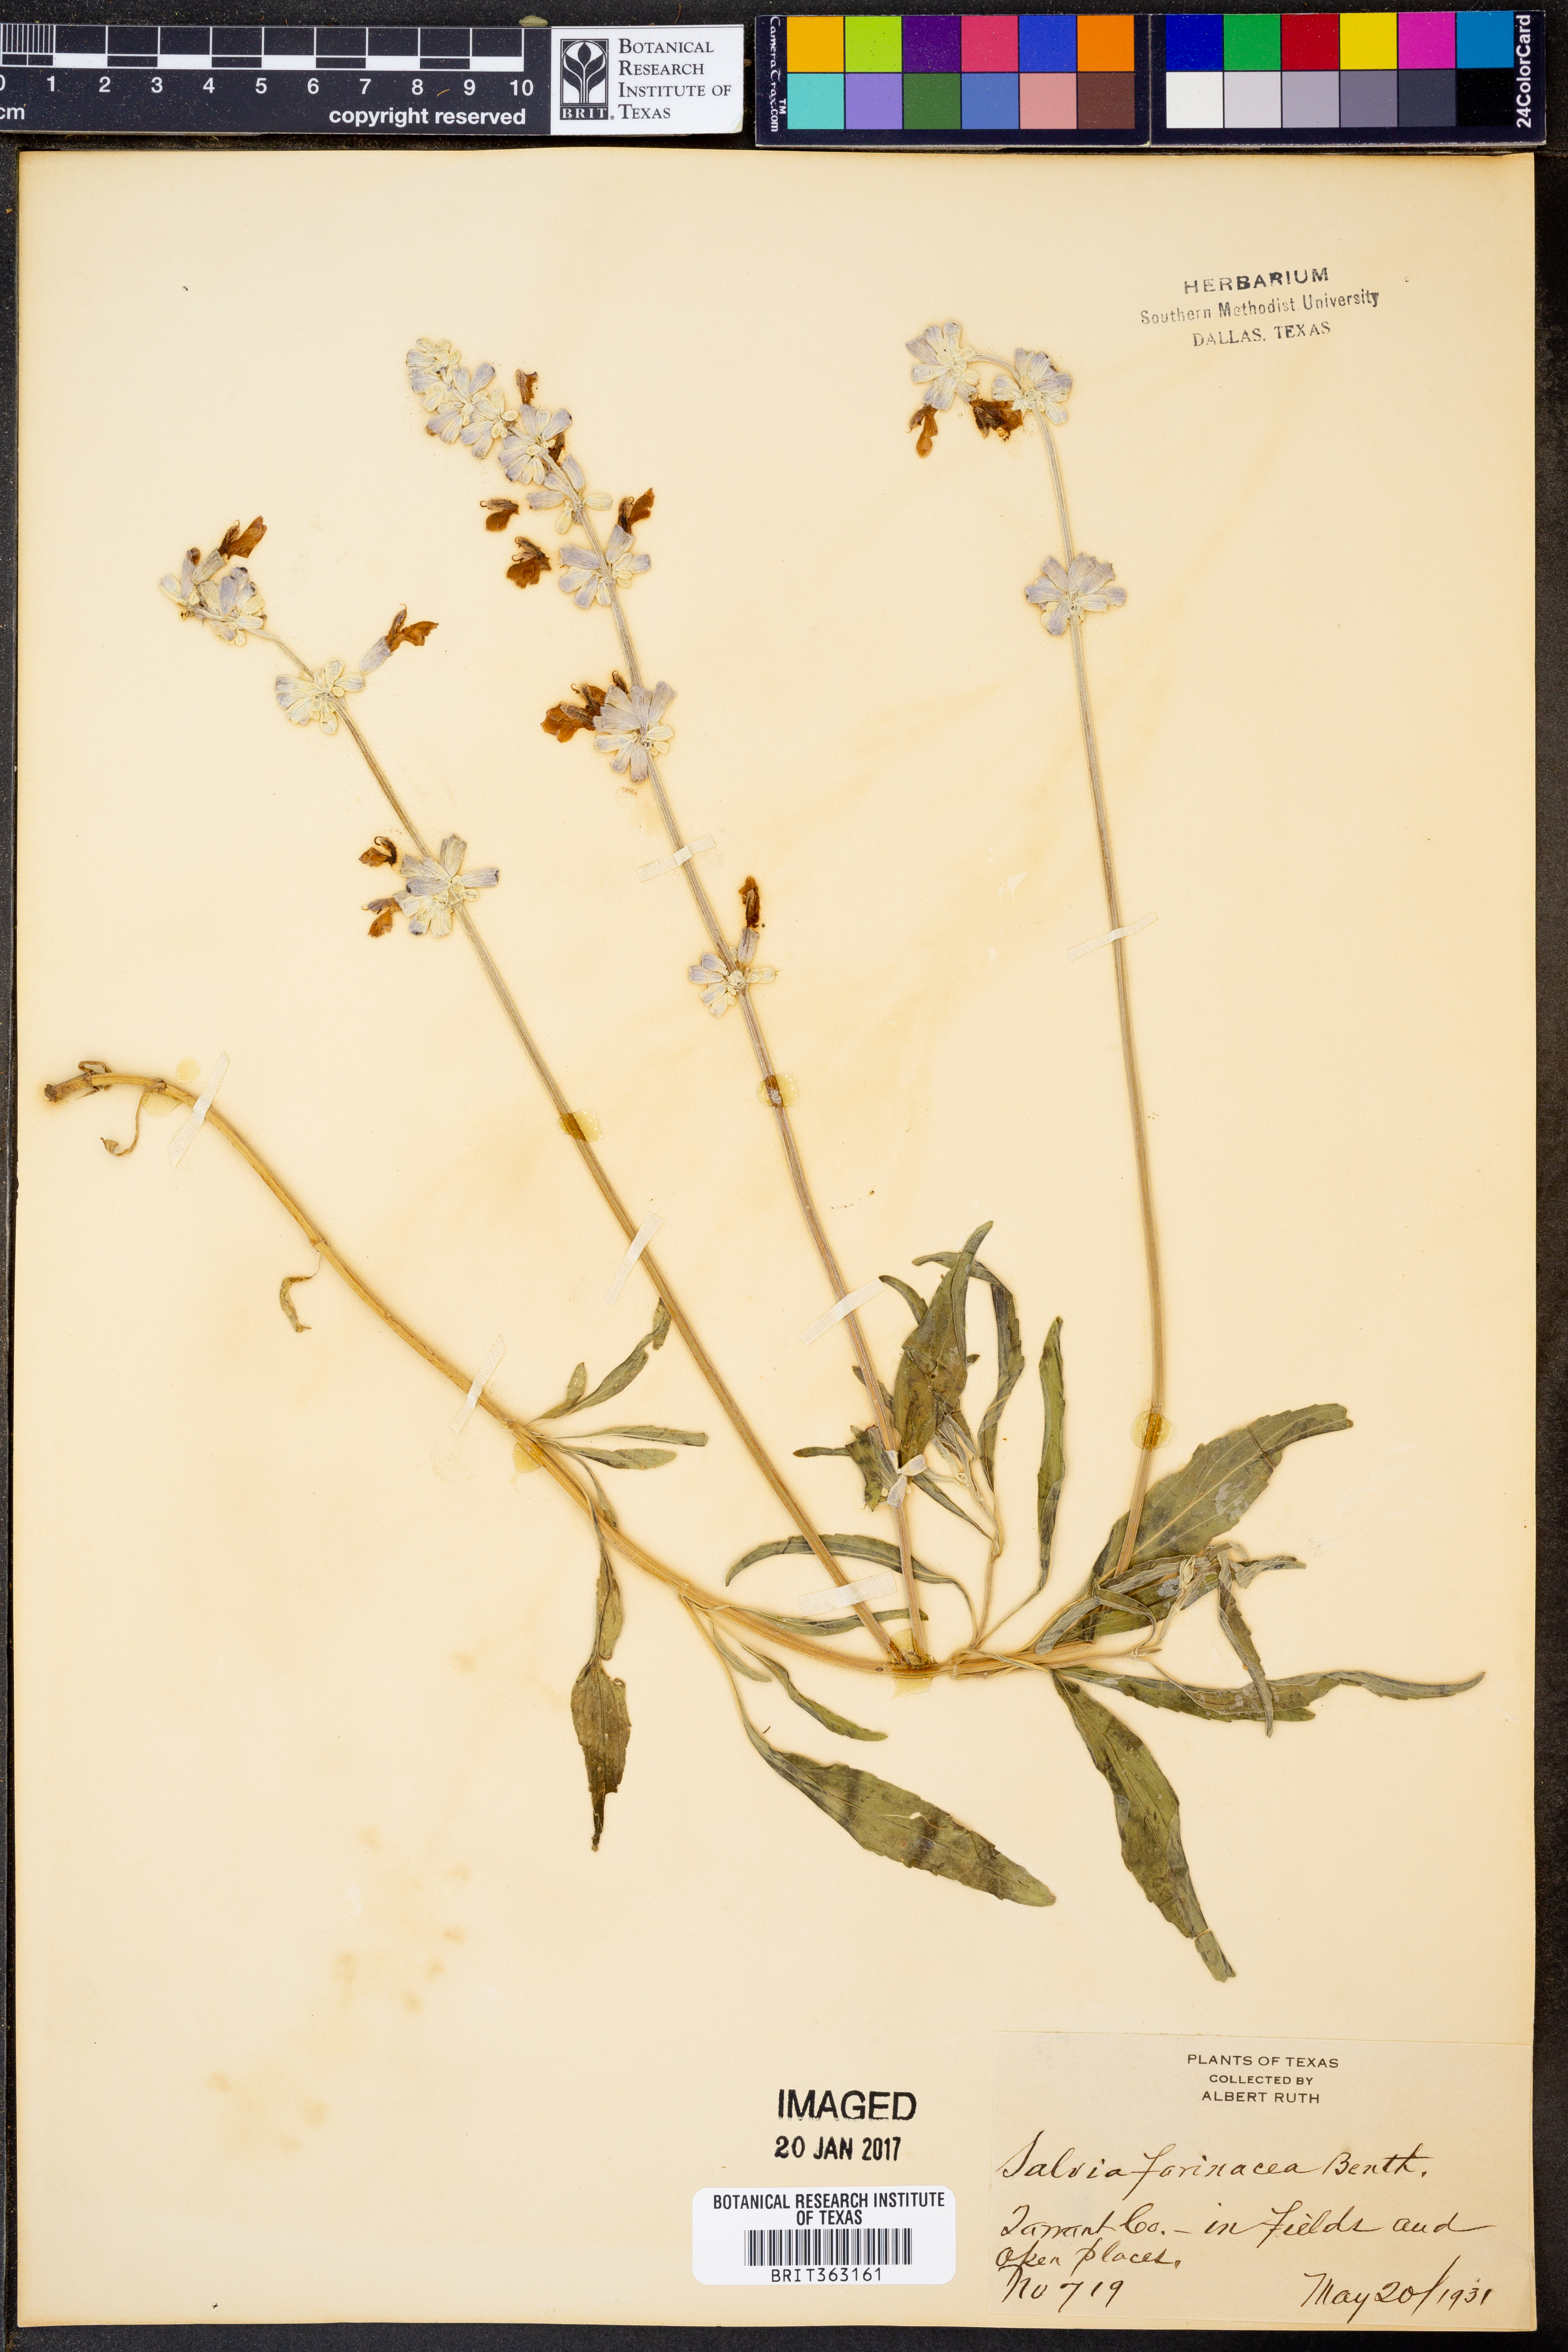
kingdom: Plantae
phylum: Tracheophyta
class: Magnoliopsida
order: Lamiales
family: Lamiaceae
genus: Salvia
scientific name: Salvia farinacea
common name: Mealy sage
